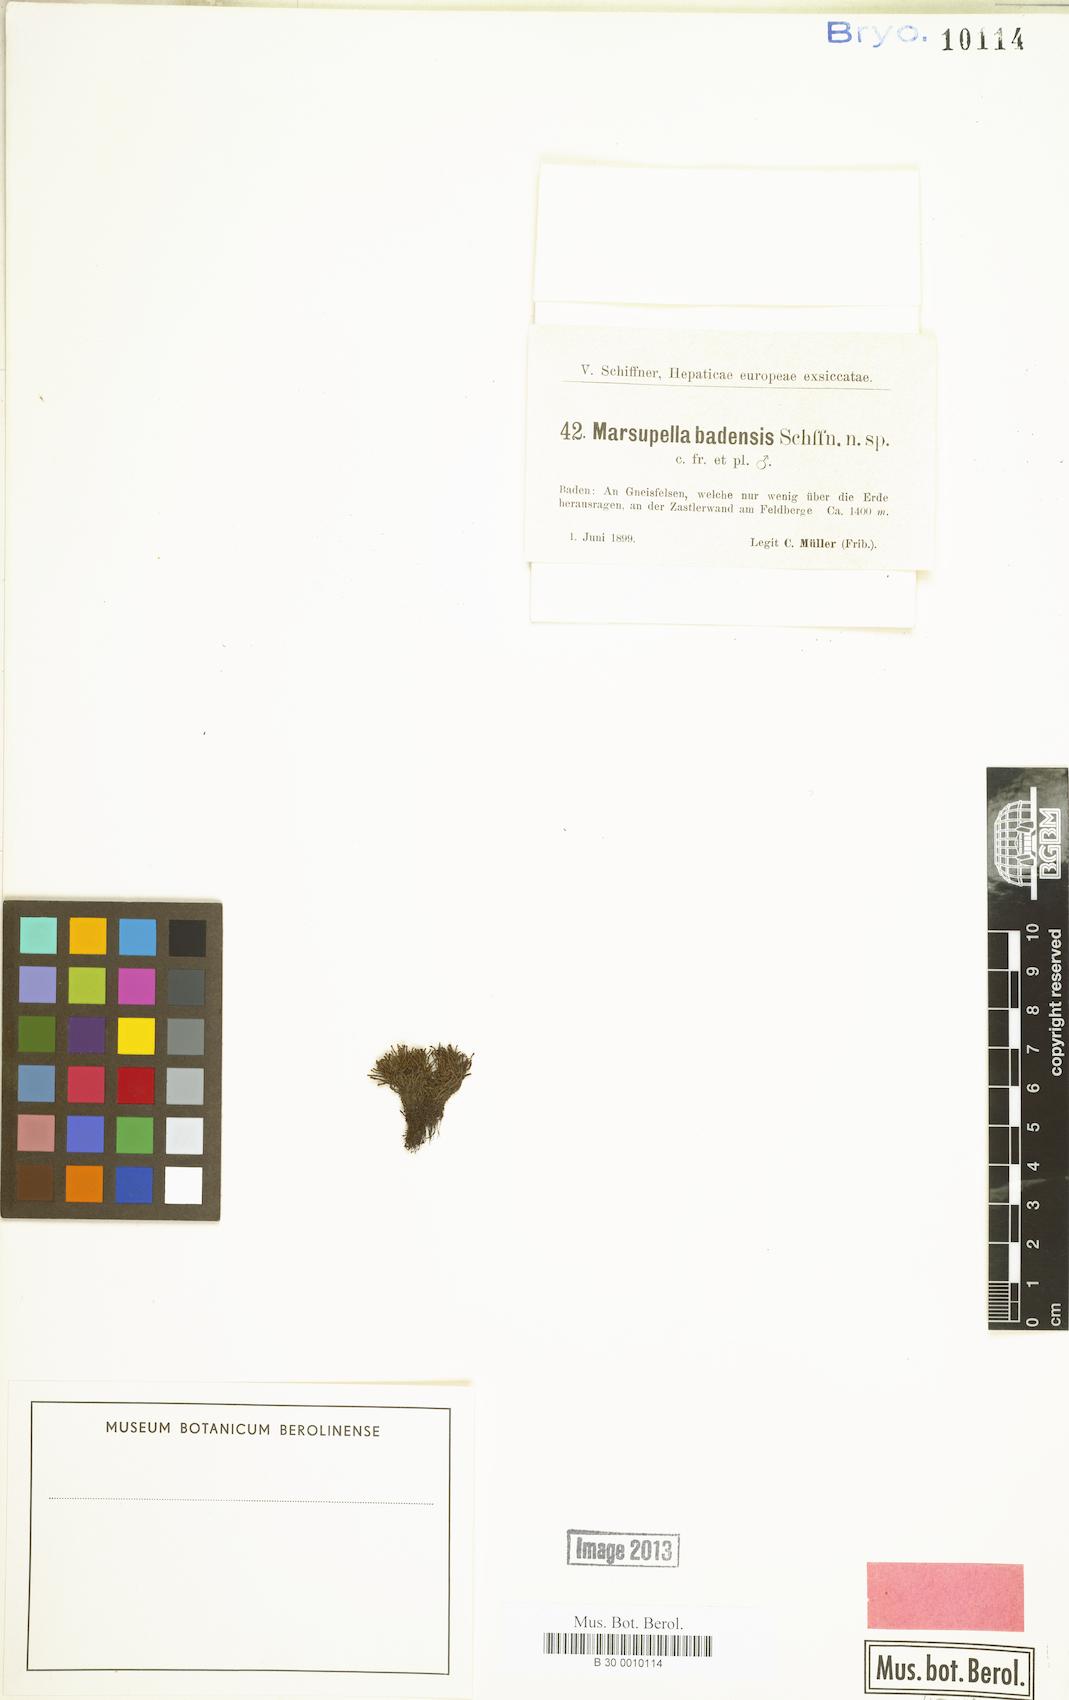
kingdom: Plantae
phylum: Marchantiophyta
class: Jungermanniopsida
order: Jungermanniales
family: Gymnomitriaceae
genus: Marsupella
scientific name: Marsupella funckii
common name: Funck's rustwort
